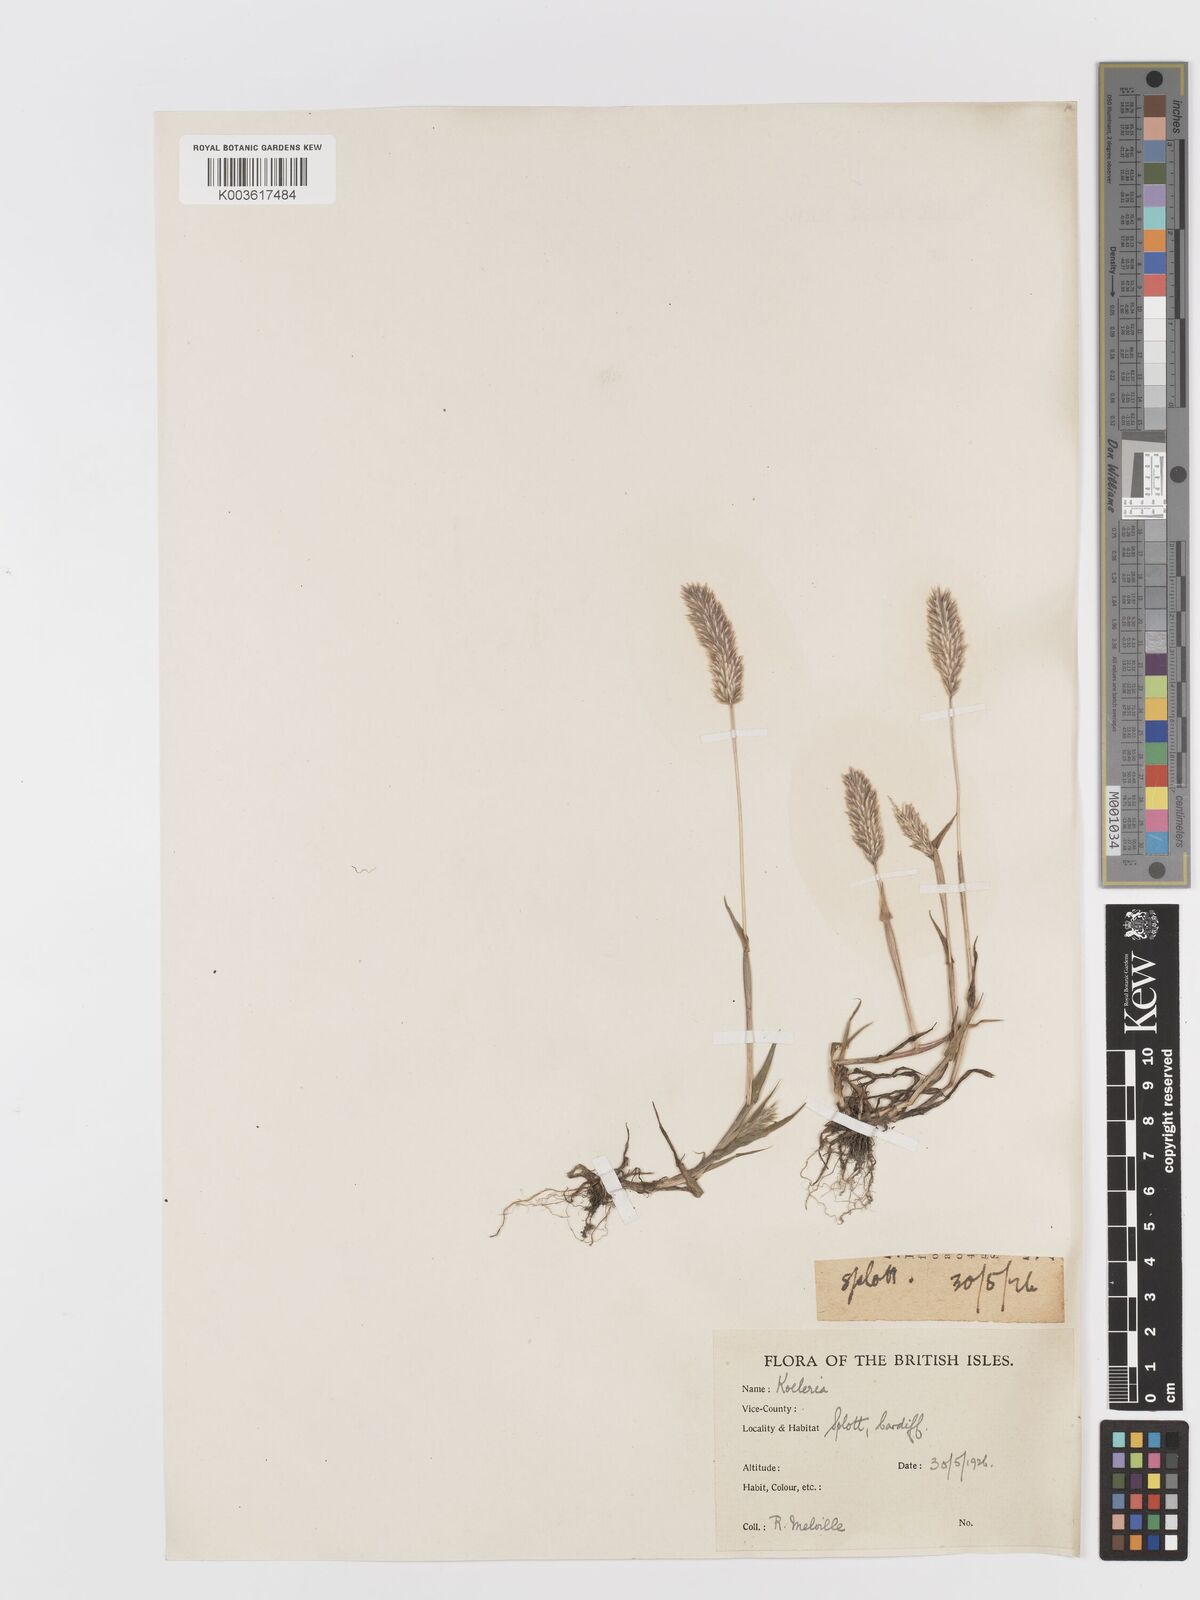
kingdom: Plantae
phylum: Tracheophyta
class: Liliopsida
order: Poales
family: Poaceae
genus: Koeleria
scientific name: Koeleria
